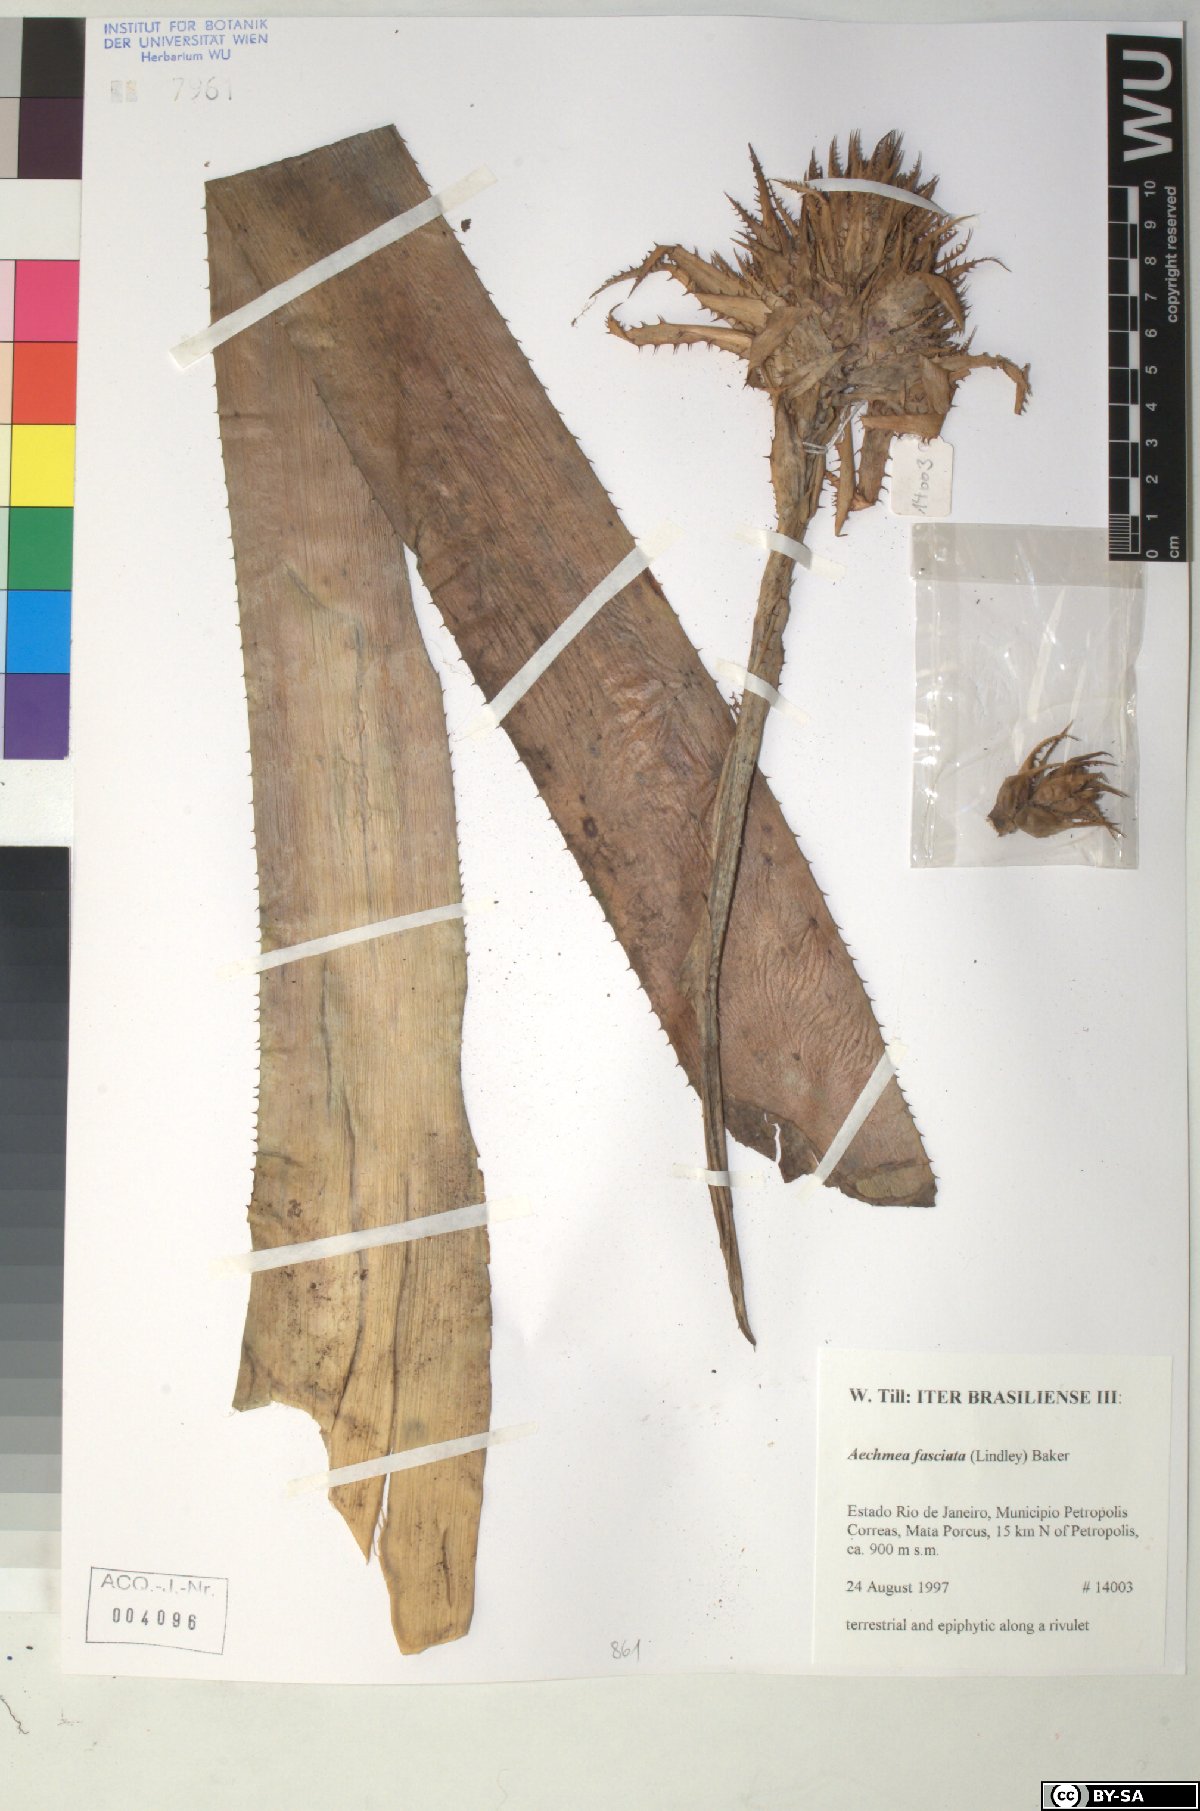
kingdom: Plantae
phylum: Tracheophyta
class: Liliopsida
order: Poales
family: Bromeliaceae
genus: Aechmea
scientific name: Aechmea fasciata
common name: Urnplant
